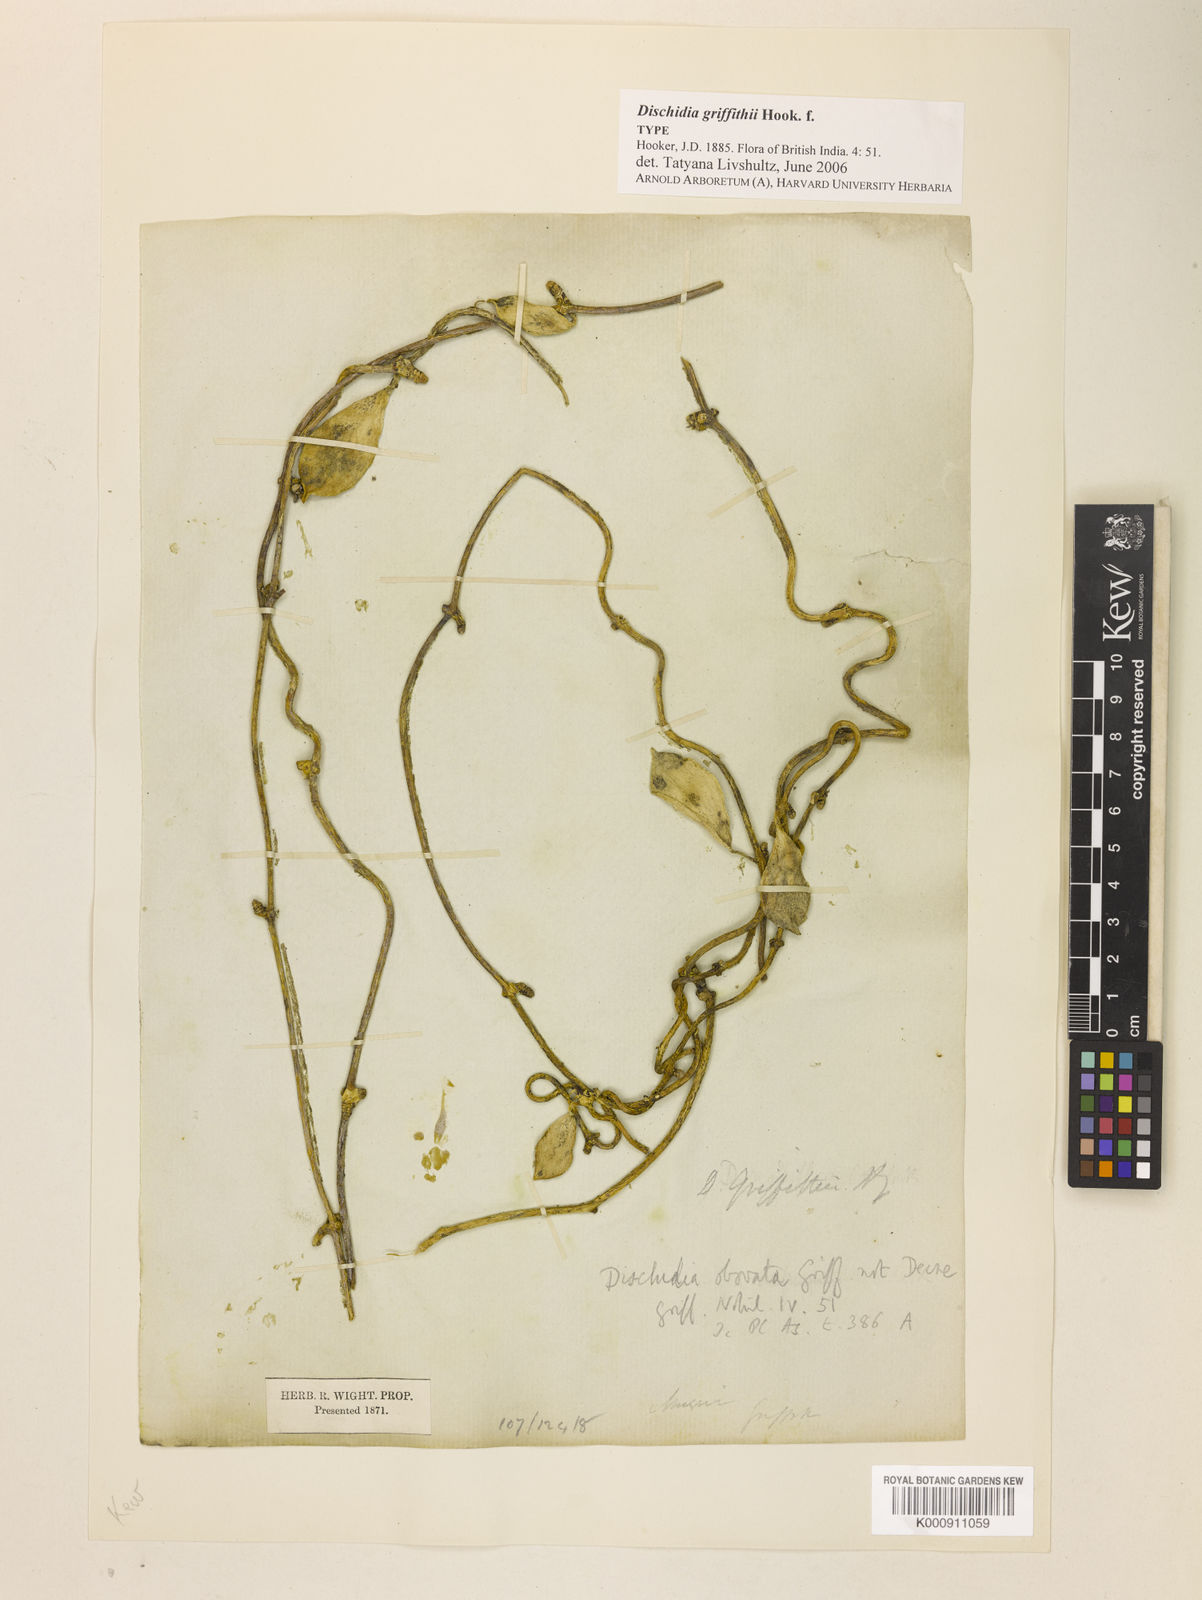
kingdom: Plantae
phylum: Tracheophyta
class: Magnoliopsida
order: Gentianales
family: Apocynaceae
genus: Dischidia
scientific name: Dischidia griffithii
